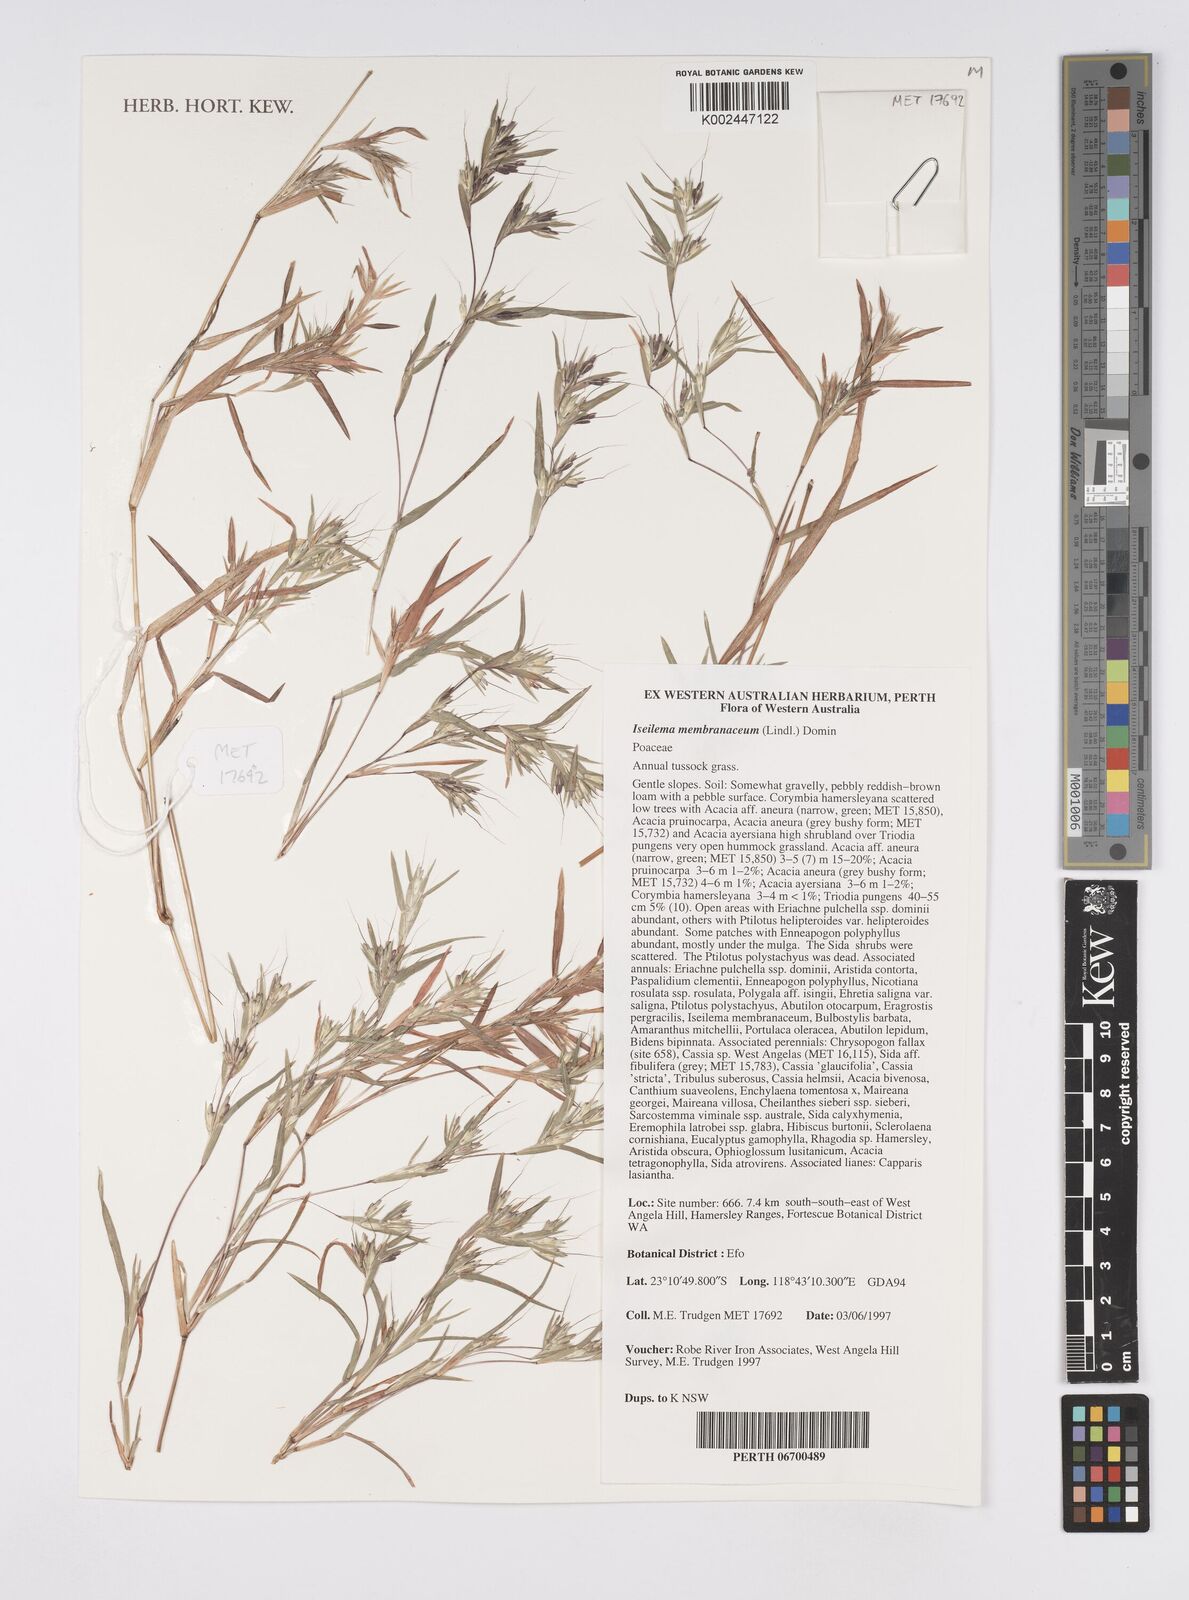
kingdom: Plantae
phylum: Tracheophyta
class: Liliopsida
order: Poales
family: Poaceae
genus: Iseilema
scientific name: Iseilema membranaceum
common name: Small flinders grass
